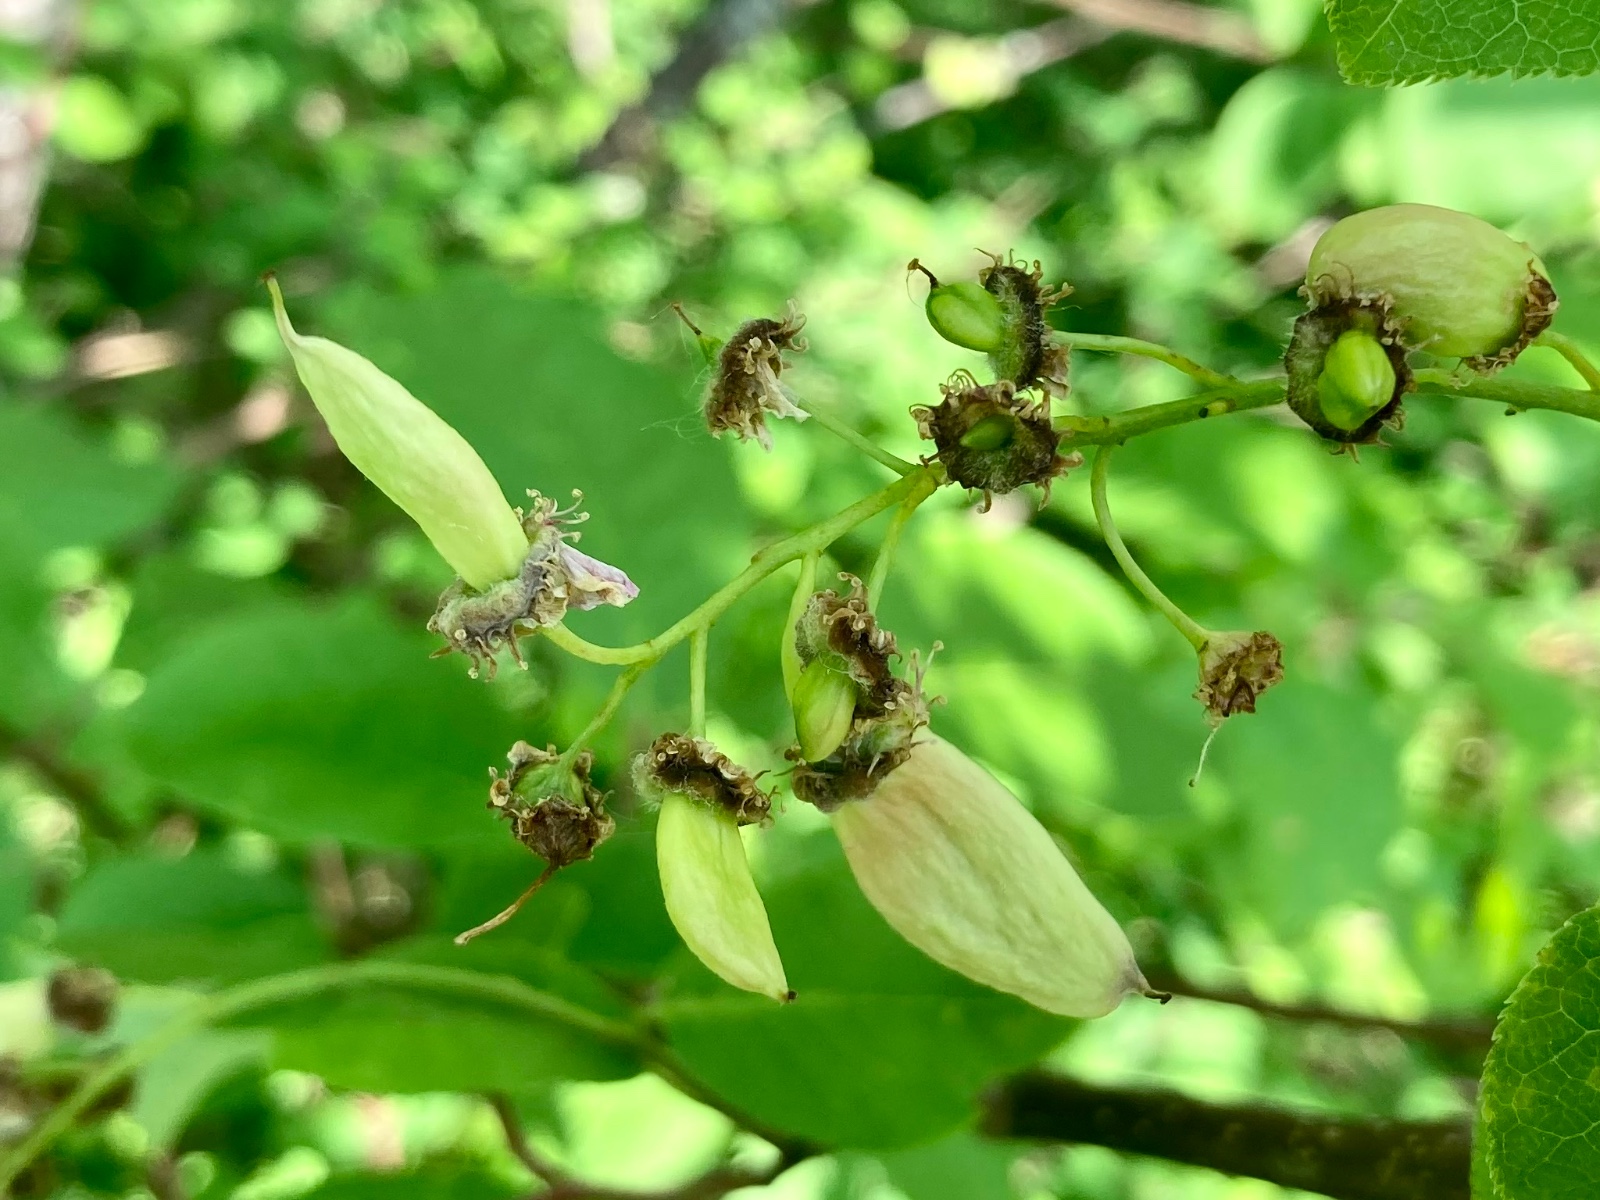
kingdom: Fungi
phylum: Ascomycota
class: Taphrinomycetes
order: Taphrinales
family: Taphrinaceae
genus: Taphrina
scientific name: Taphrina padi
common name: Bird cherry pocket
